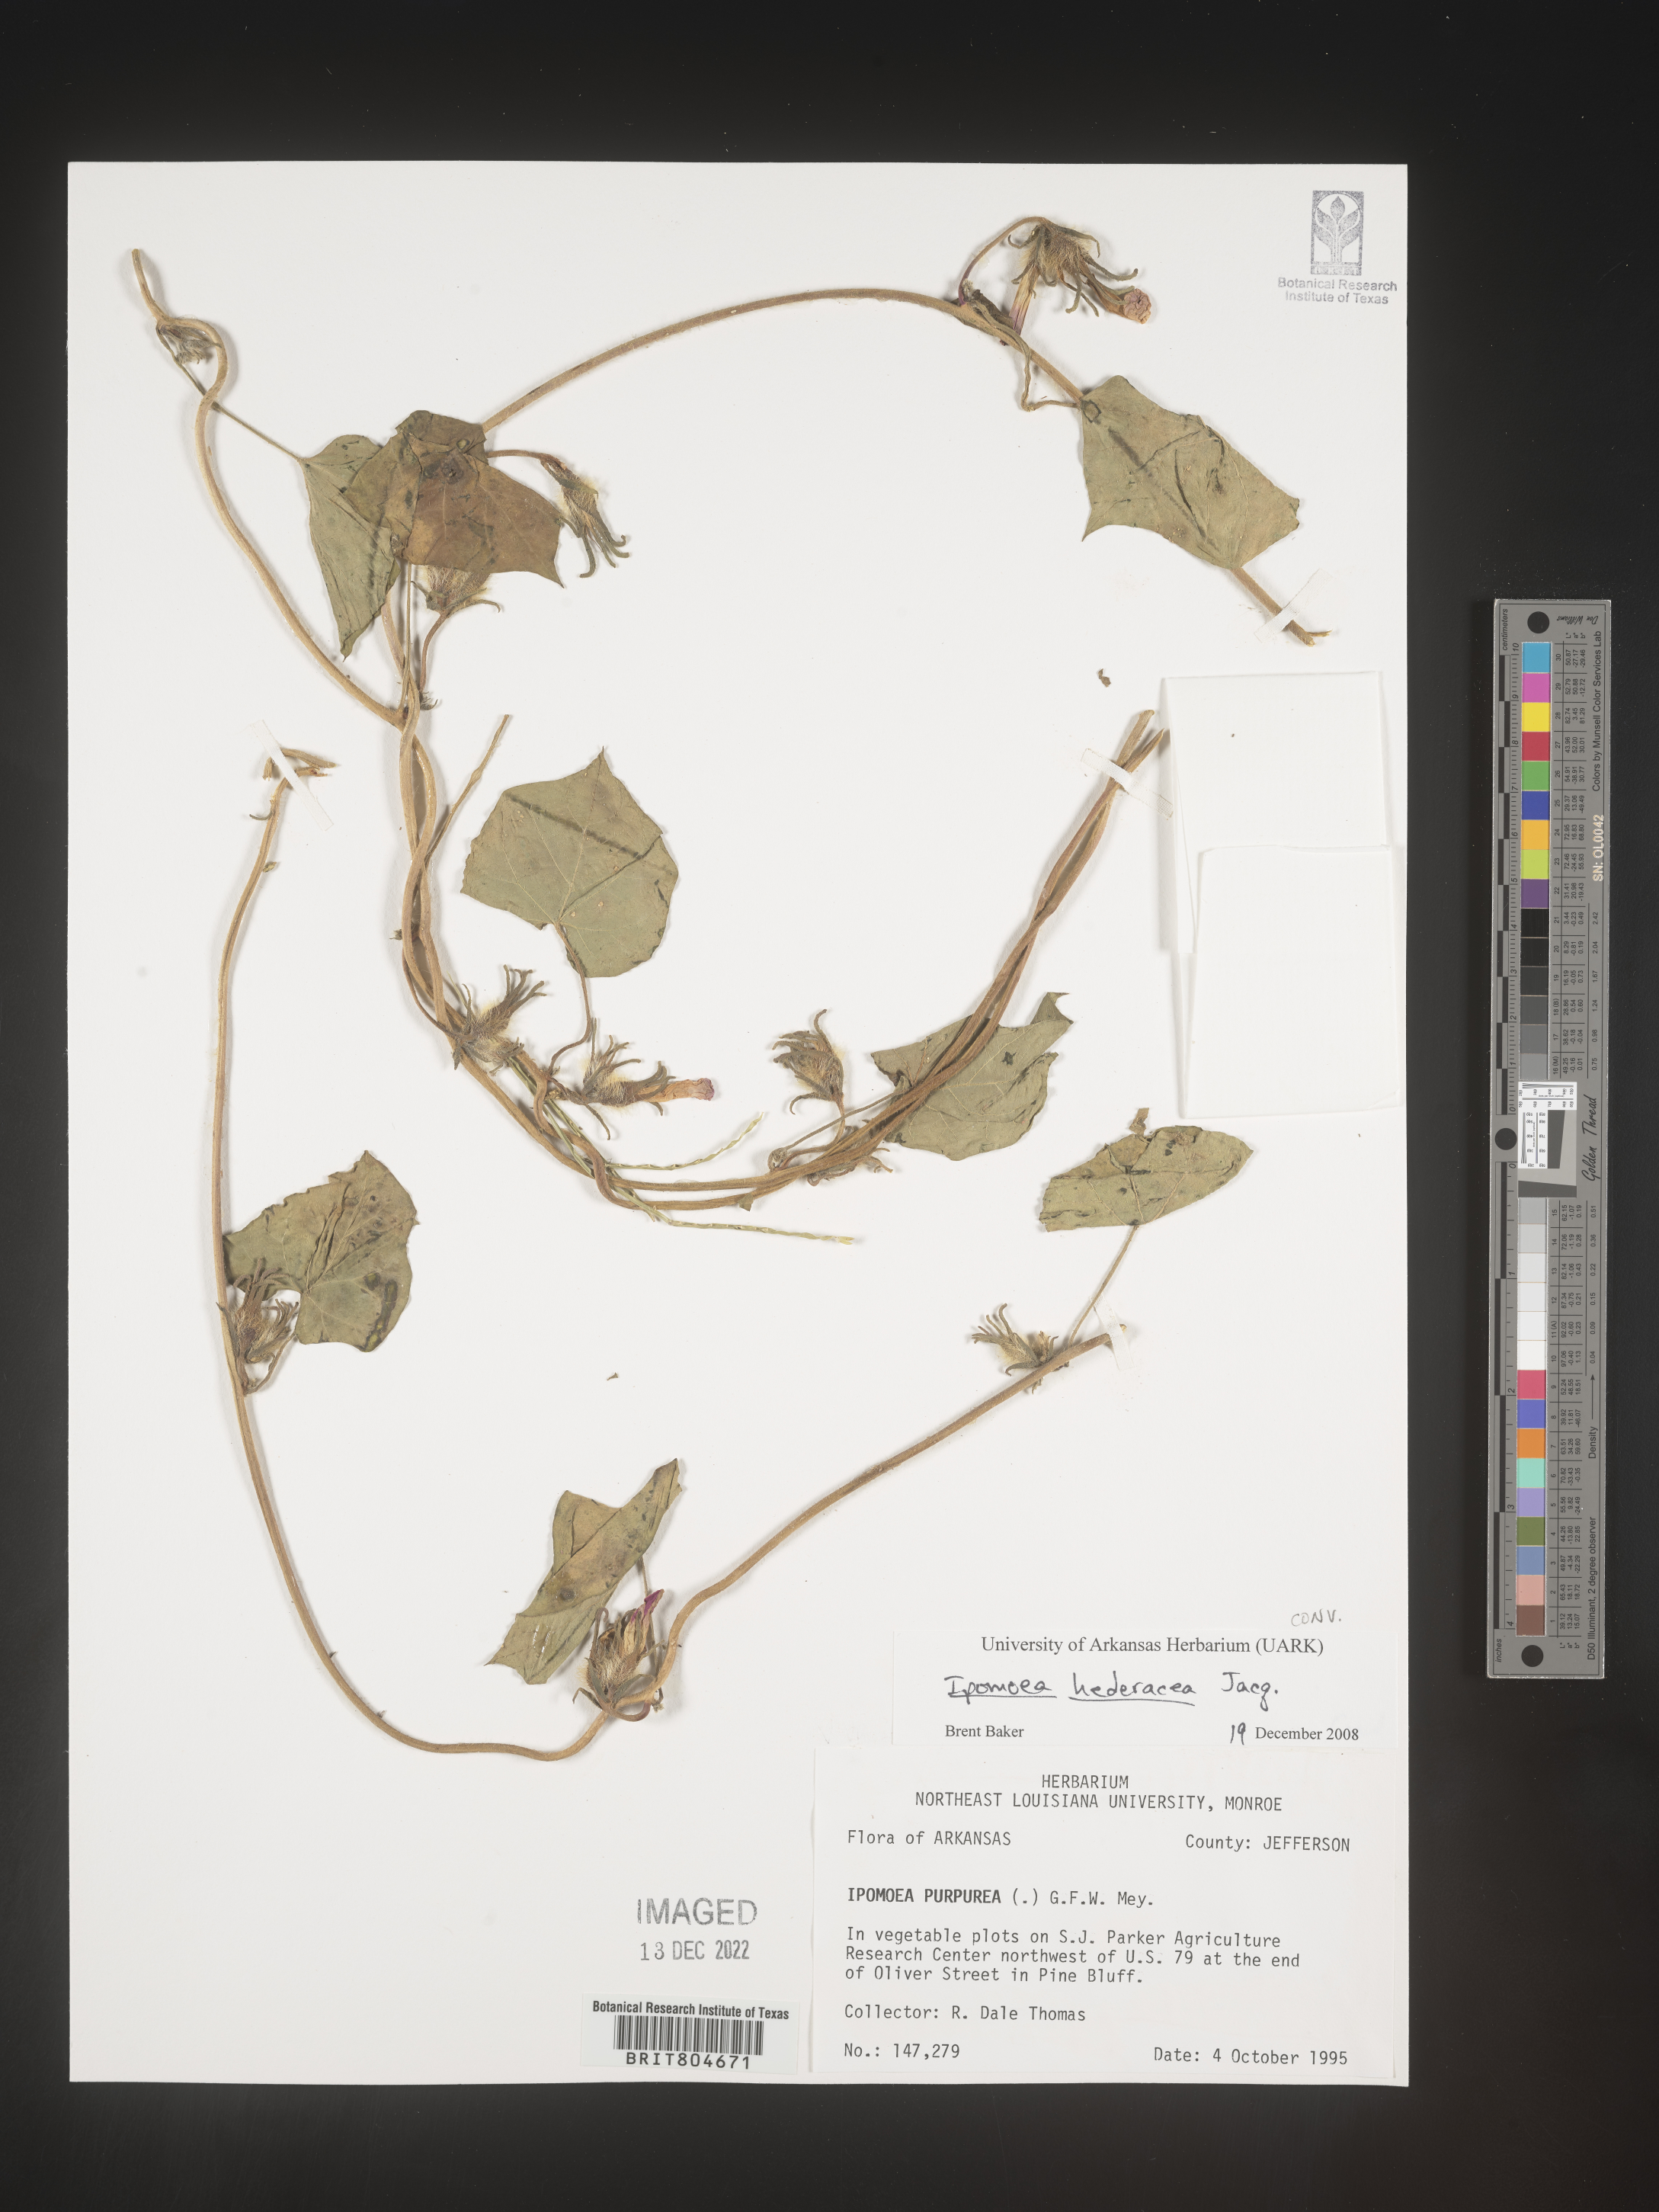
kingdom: Plantae
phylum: Tracheophyta
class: Magnoliopsida
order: Solanales
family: Convolvulaceae
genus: Ipomoea
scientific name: Ipomoea hederacea
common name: Ivy-leaved morning-glory
